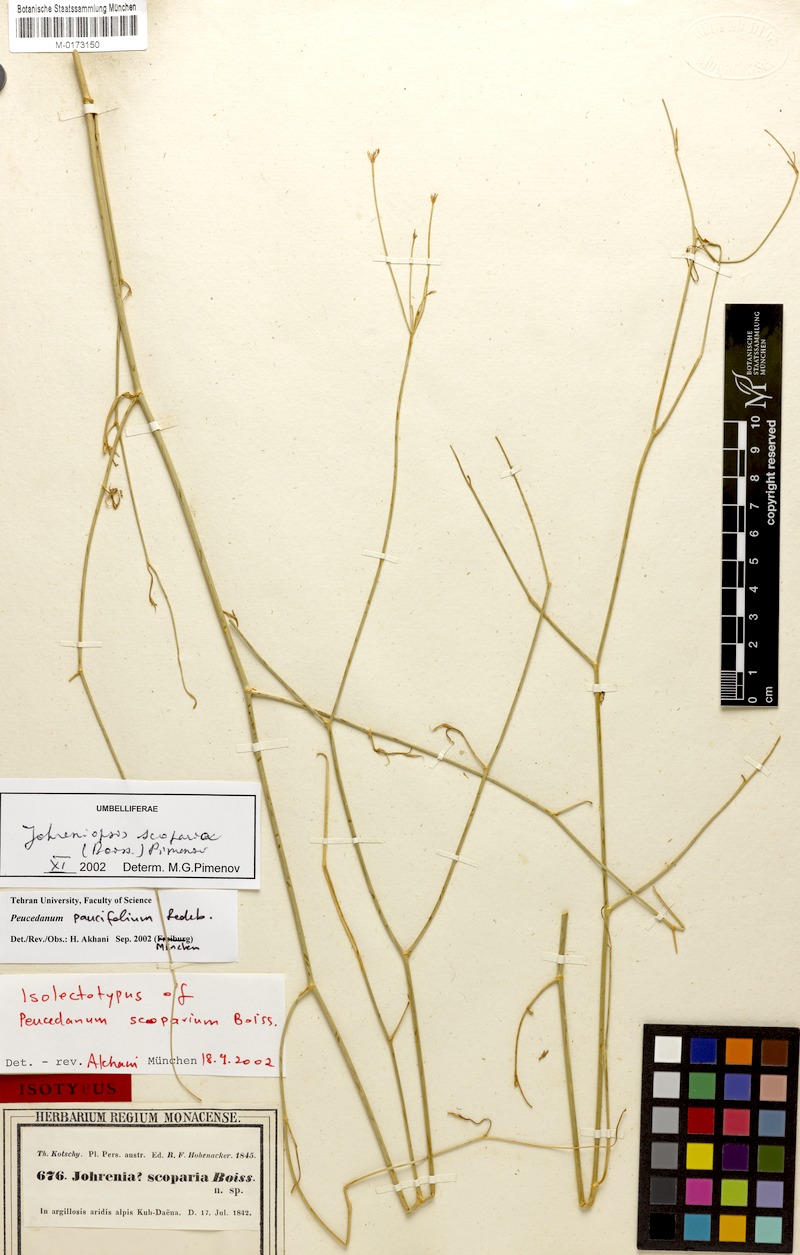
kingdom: Plantae
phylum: Tracheophyta
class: Magnoliopsida
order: Apiales
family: Apiaceae
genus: Dichoropetalum
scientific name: Dichoropetalum scoparium
